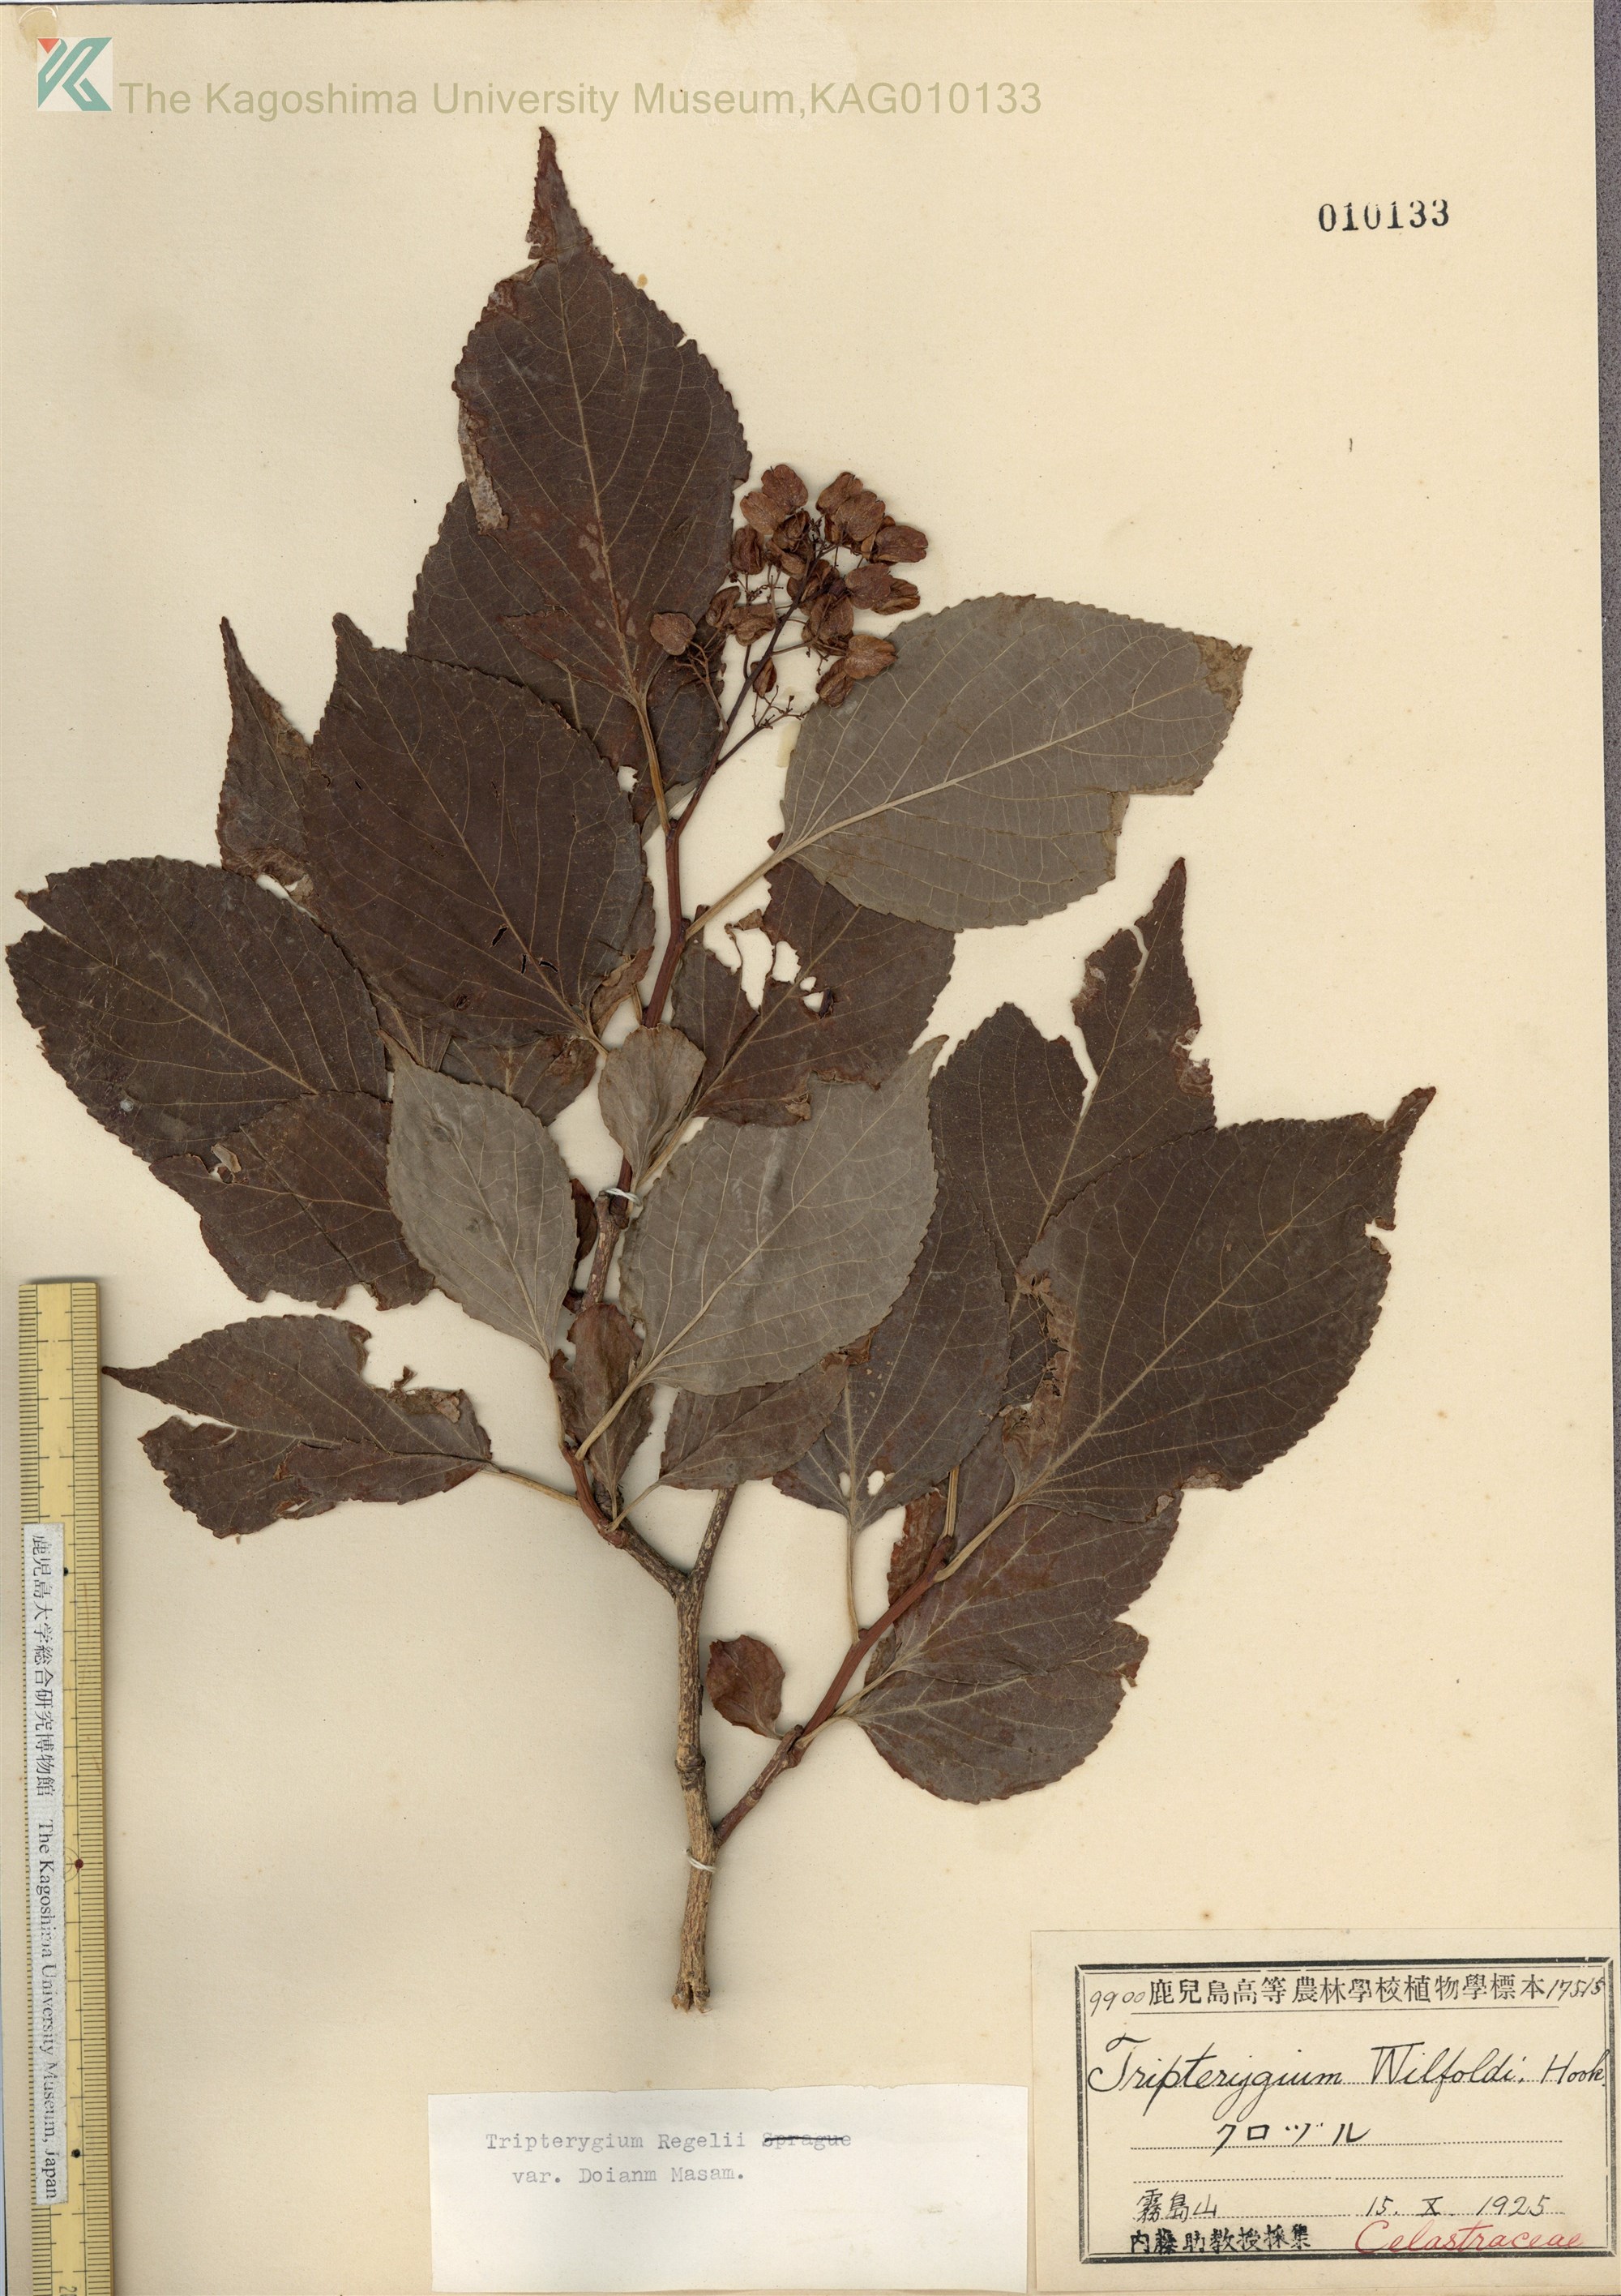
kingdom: Plantae
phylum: Tracheophyta
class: Magnoliopsida
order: Celastrales
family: Celastraceae
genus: Tripterygium
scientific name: Tripterygium doianum
